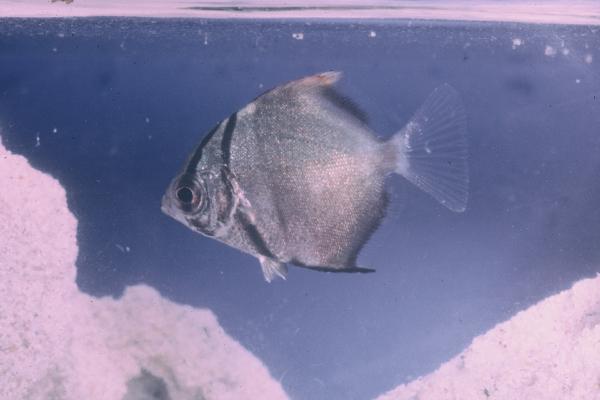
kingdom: Animalia
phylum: Chordata
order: Perciformes
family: Monodactylidae
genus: Monodactylus
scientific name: Monodactylus argenteus
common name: Silver moony
